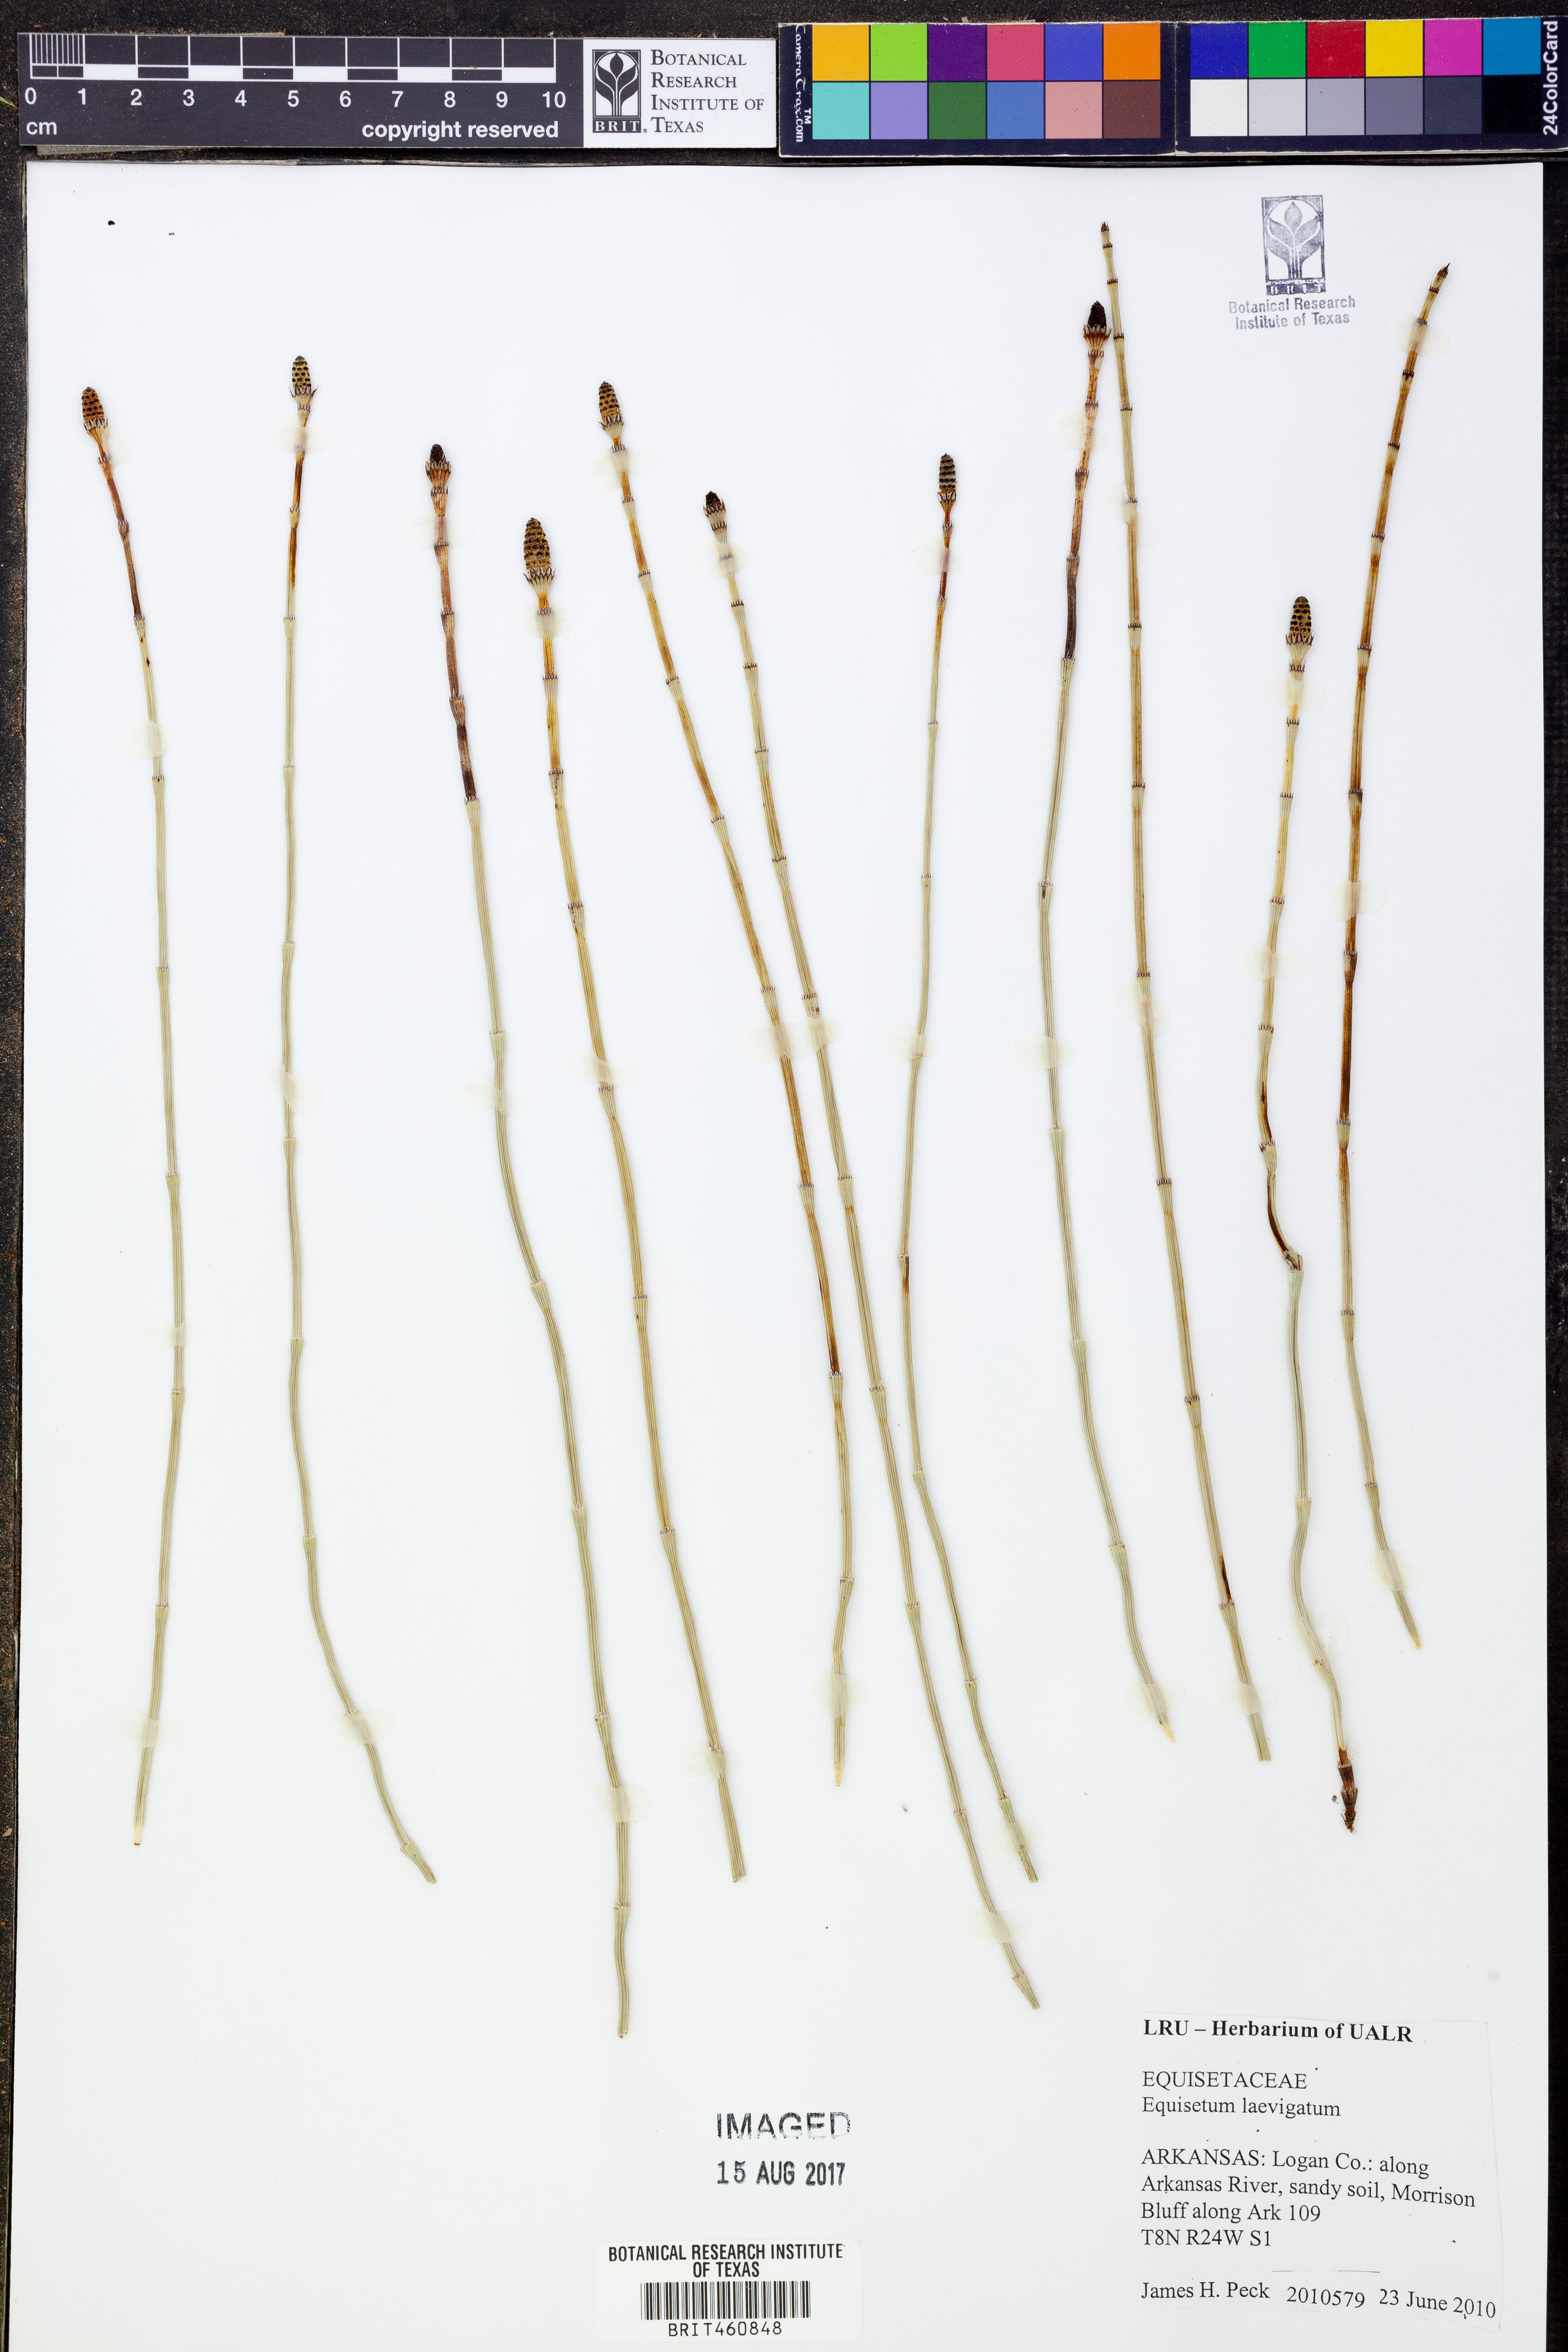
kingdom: Plantae
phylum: Tracheophyta
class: Polypodiopsida
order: Equisetales
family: Equisetaceae
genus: Equisetum
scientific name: Equisetum laevigatum
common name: Smooth scouring-rush
